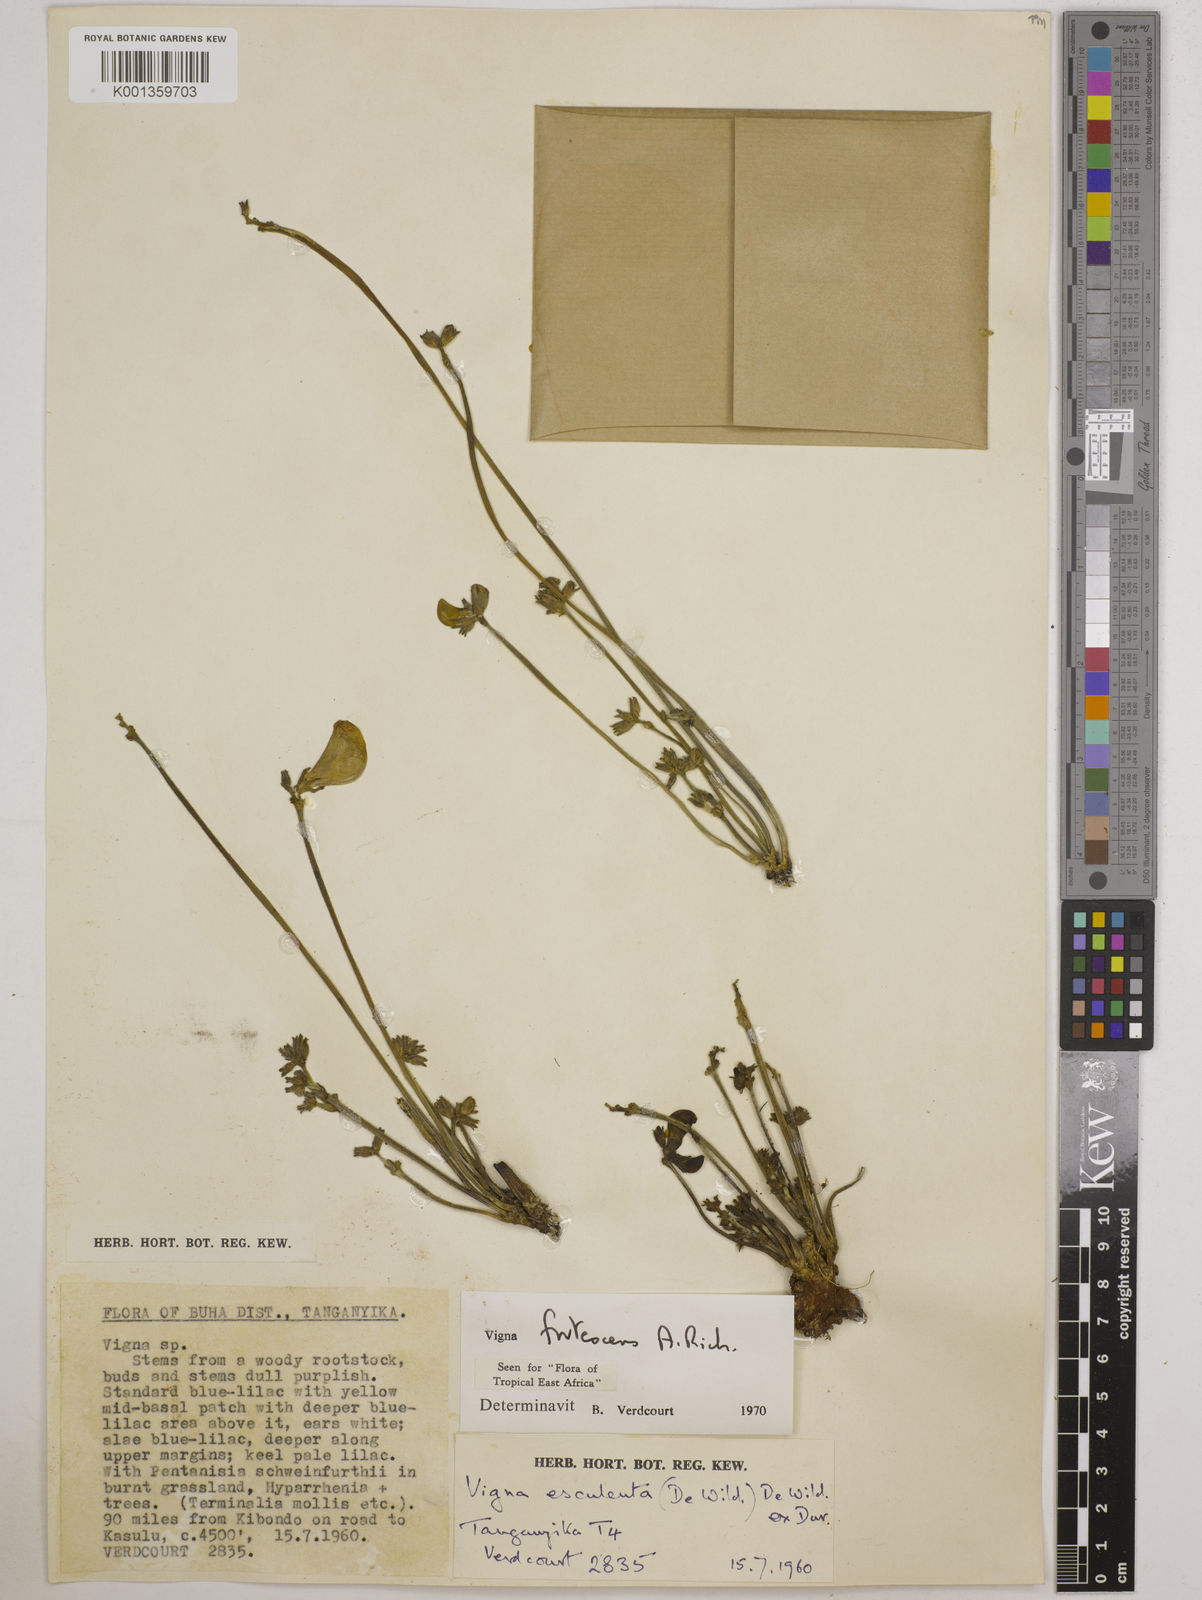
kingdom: Plantae
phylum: Tracheophyta
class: Magnoliopsida
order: Fabales
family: Fabaceae
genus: Vigna
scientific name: Vigna frutescens
